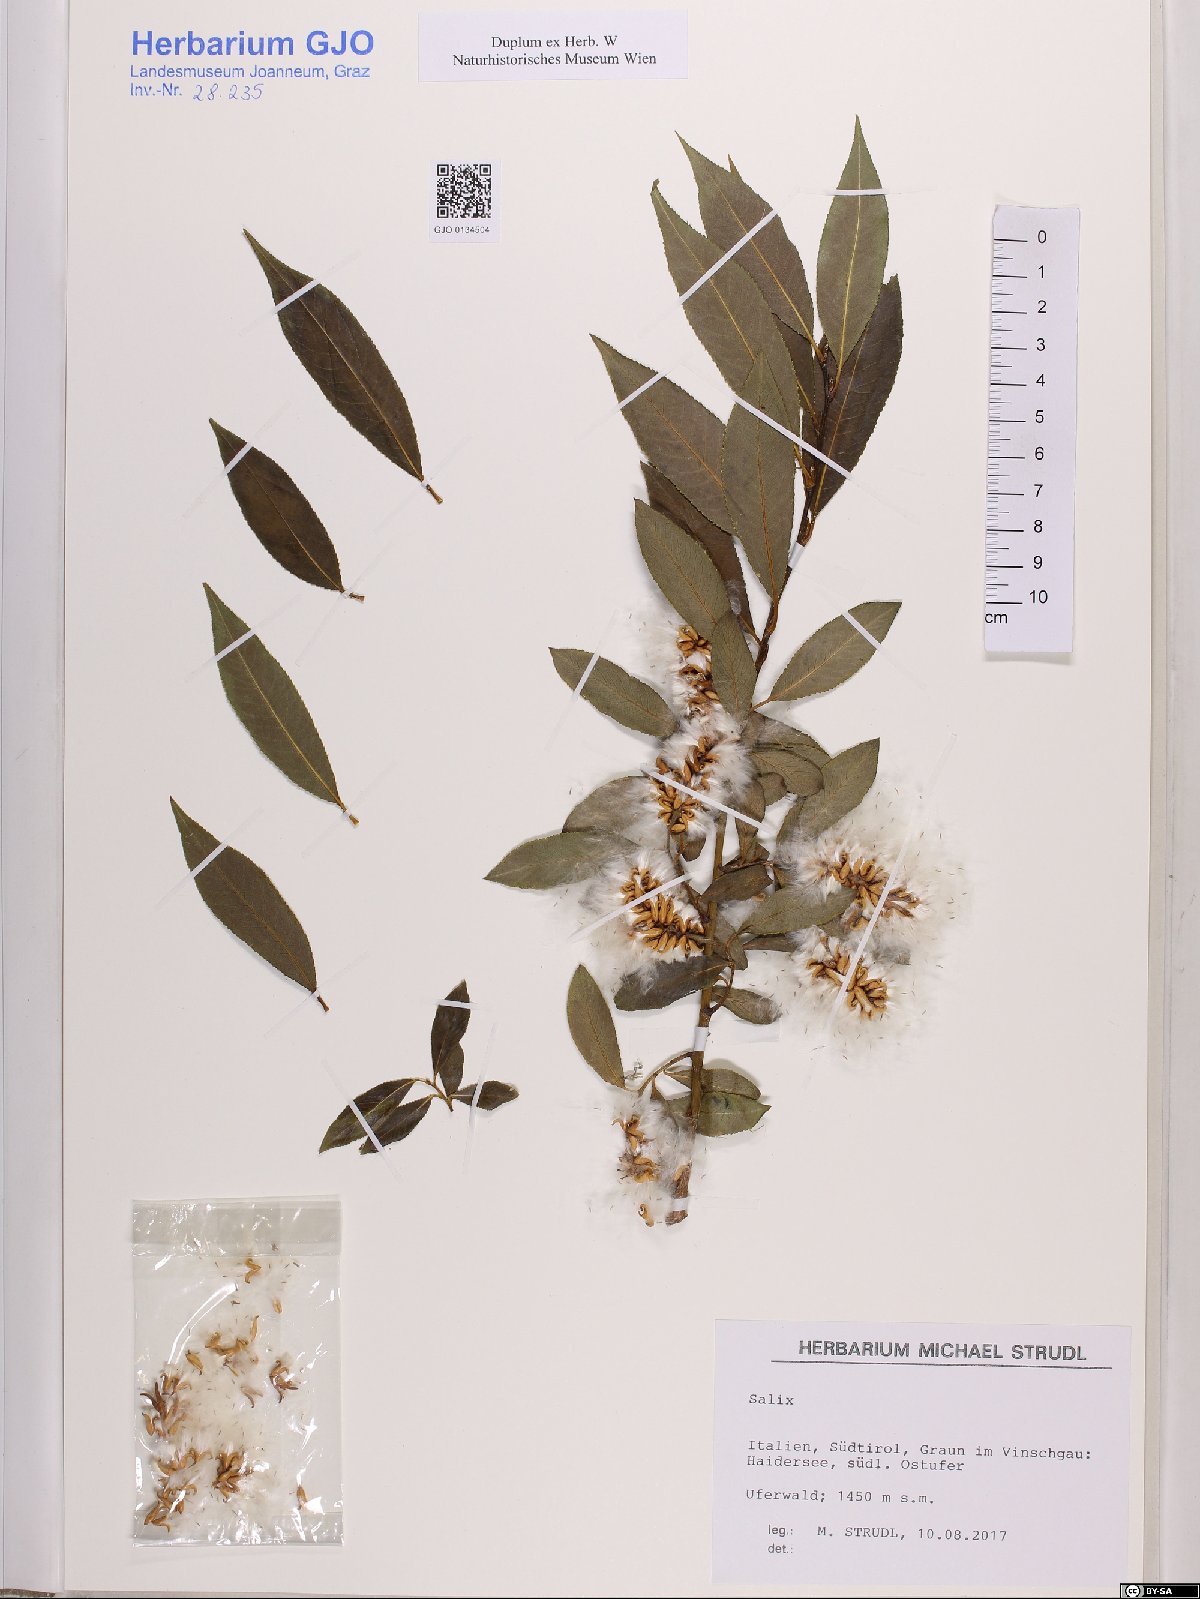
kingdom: Plantae
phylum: Tracheophyta
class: Magnoliopsida
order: Malpighiales
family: Salicaceae
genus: Salix
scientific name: Salix
